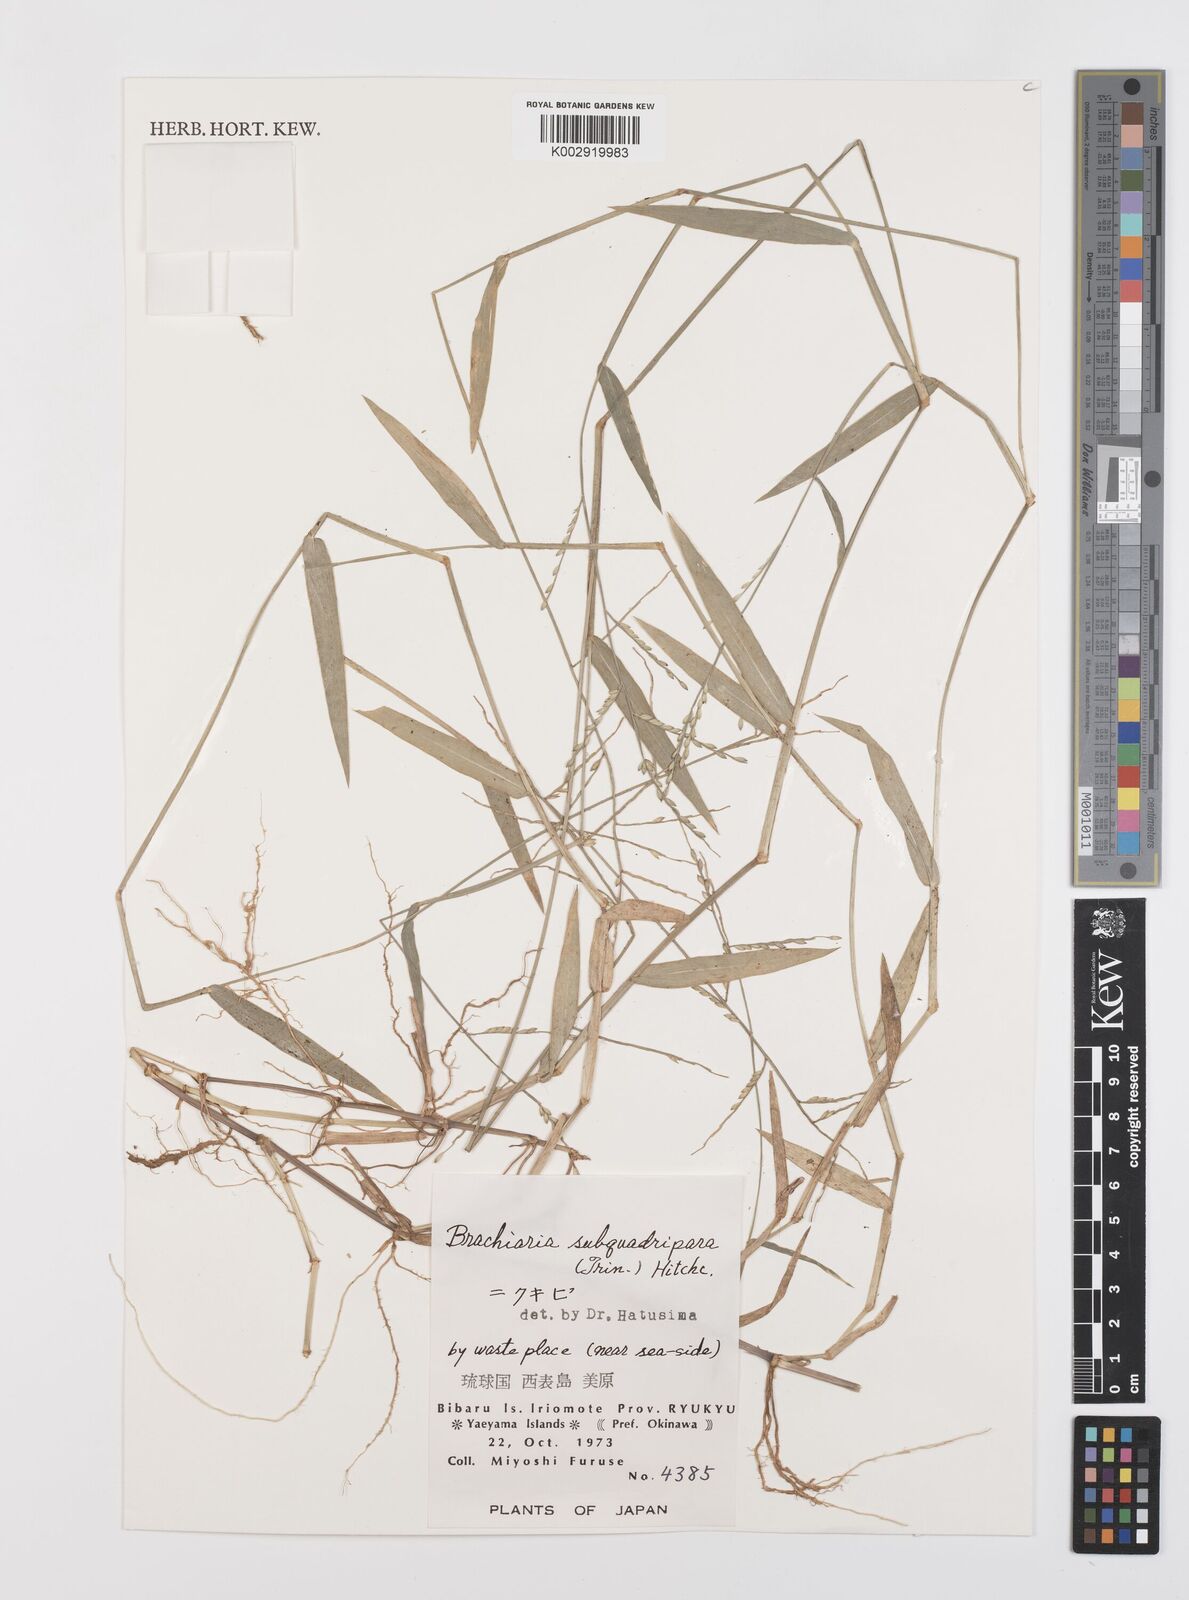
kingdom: Plantae
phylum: Tracheophyta
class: Liliopsida
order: Poales
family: Poaceae
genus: Urochloa
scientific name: Urochloa subquadripara
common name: Armgrass millet
